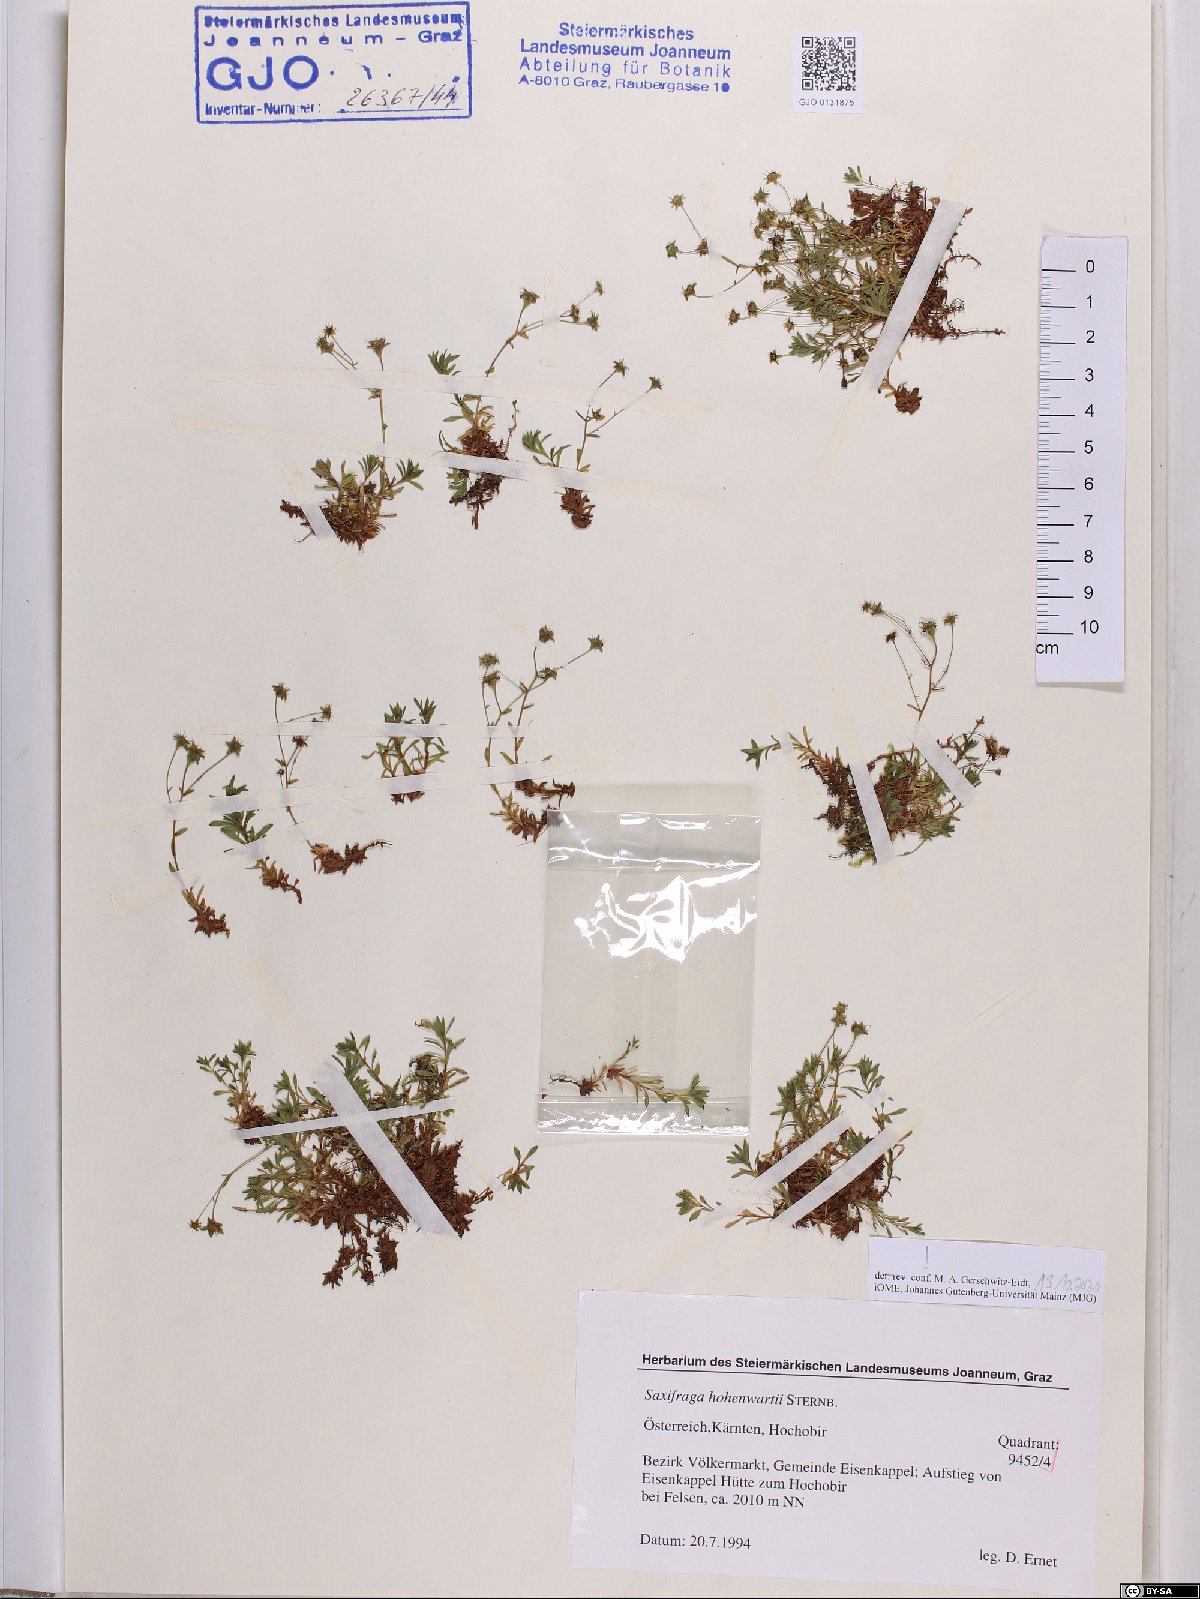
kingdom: Plantae
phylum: Tracheophyta
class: Magnoliopsida
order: Saxifragales
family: Saxifragaceae
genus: Saxifraga
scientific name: Saxifraga hohenwartii
